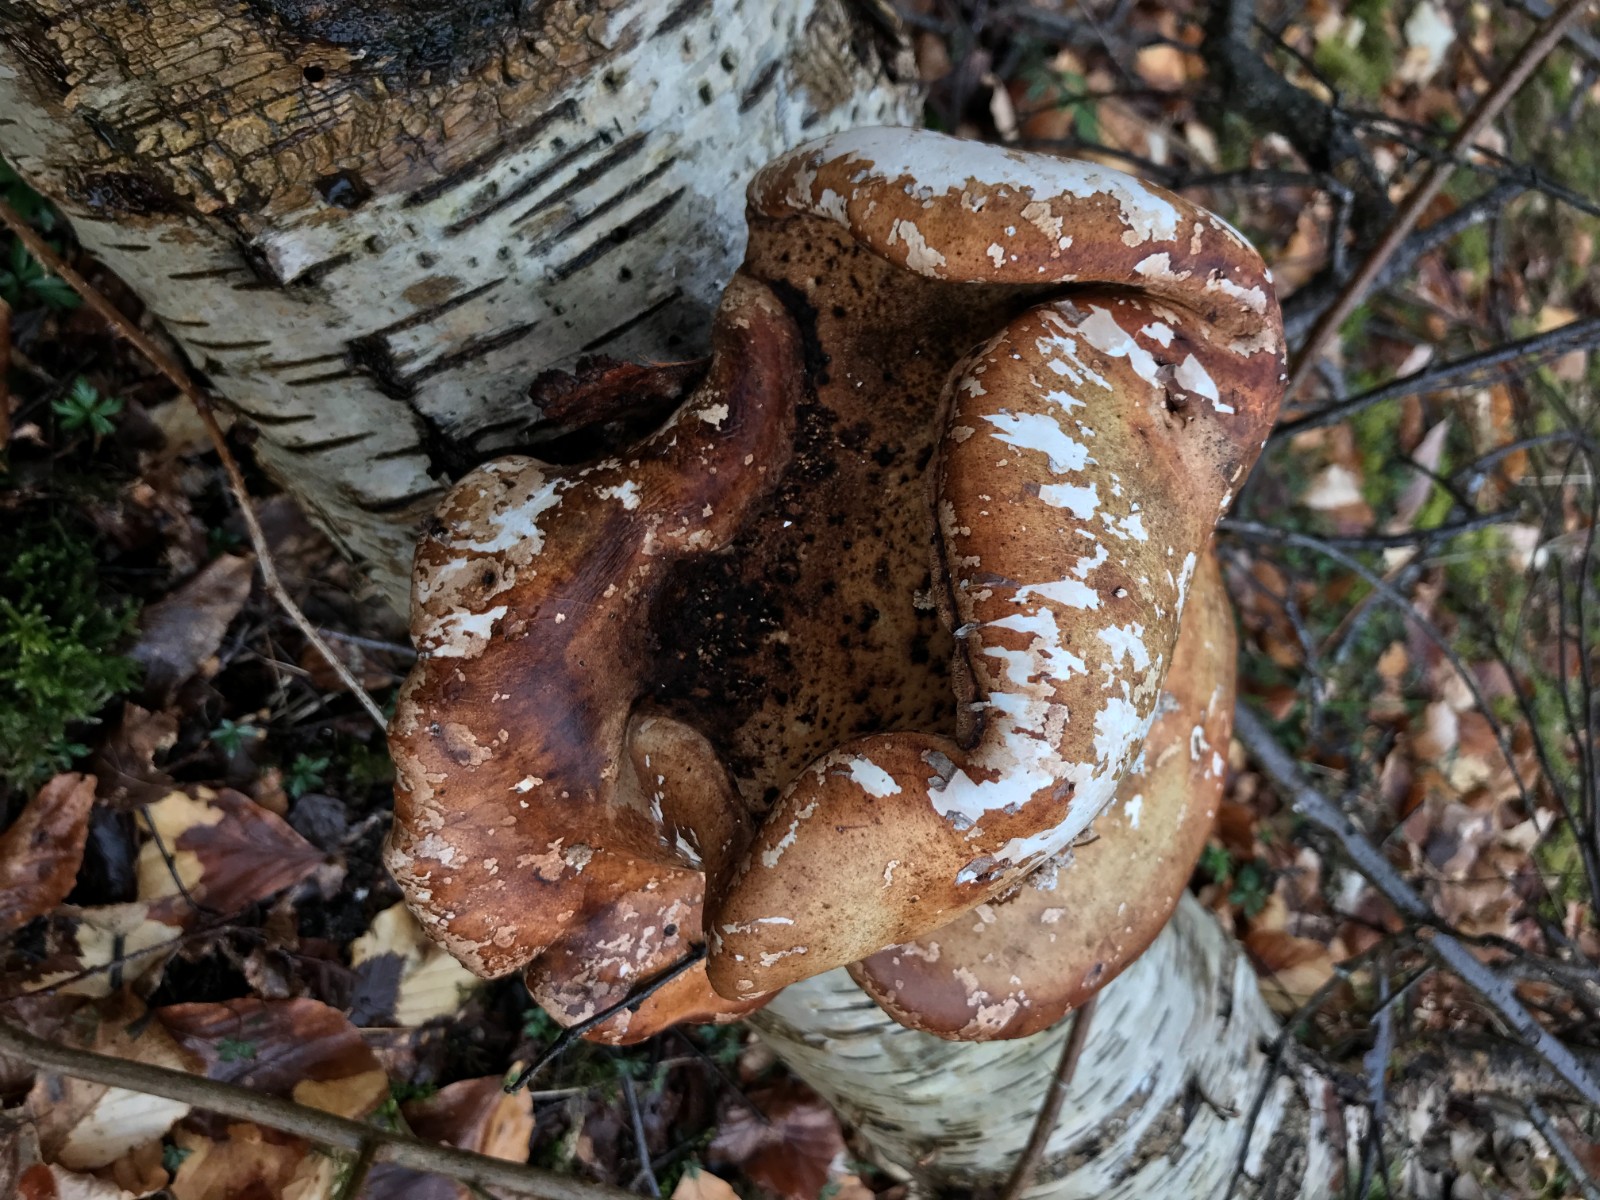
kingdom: Fungi
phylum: Basidiomycota
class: Agaricomycetes
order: Polyporales
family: Fomitopsidaceae
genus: Fomitopsis
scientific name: Fomitopsis betulina
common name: birkeporesvamp
